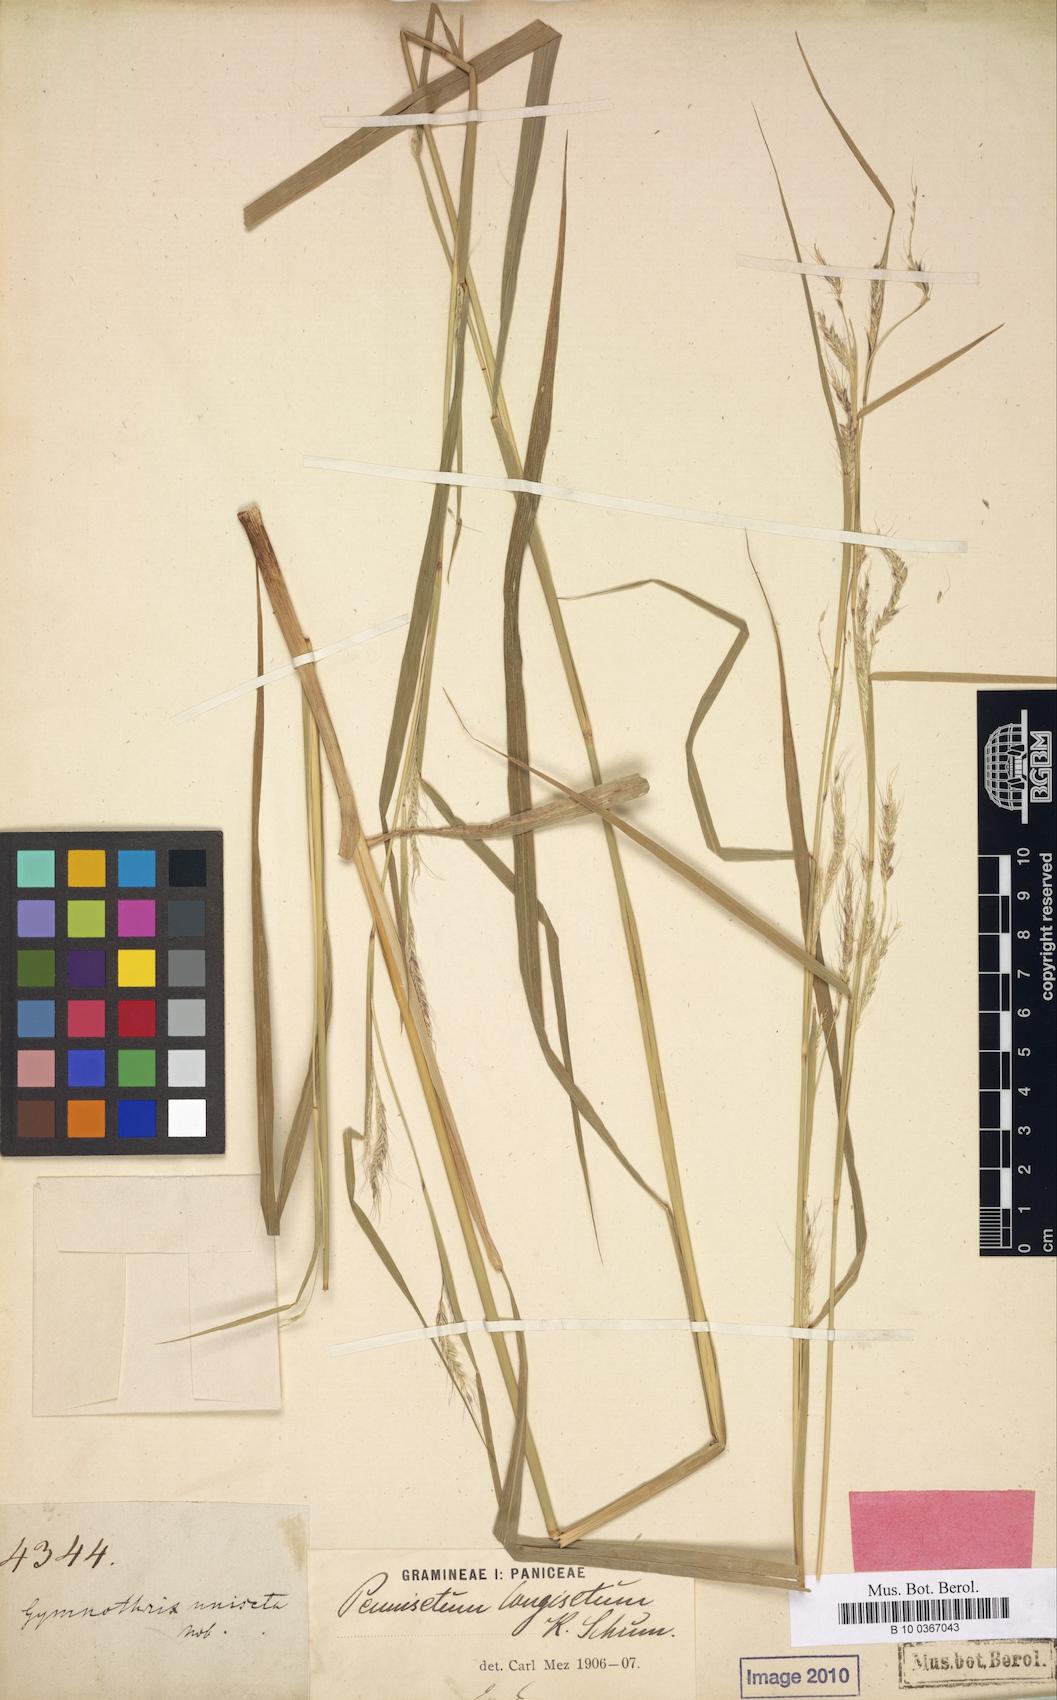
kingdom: Plantae
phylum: Tracheophyta
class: Liliopsida
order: Poales
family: Poaceae
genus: Cenchrus
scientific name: Cenchrus unisetus
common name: Natal grass
